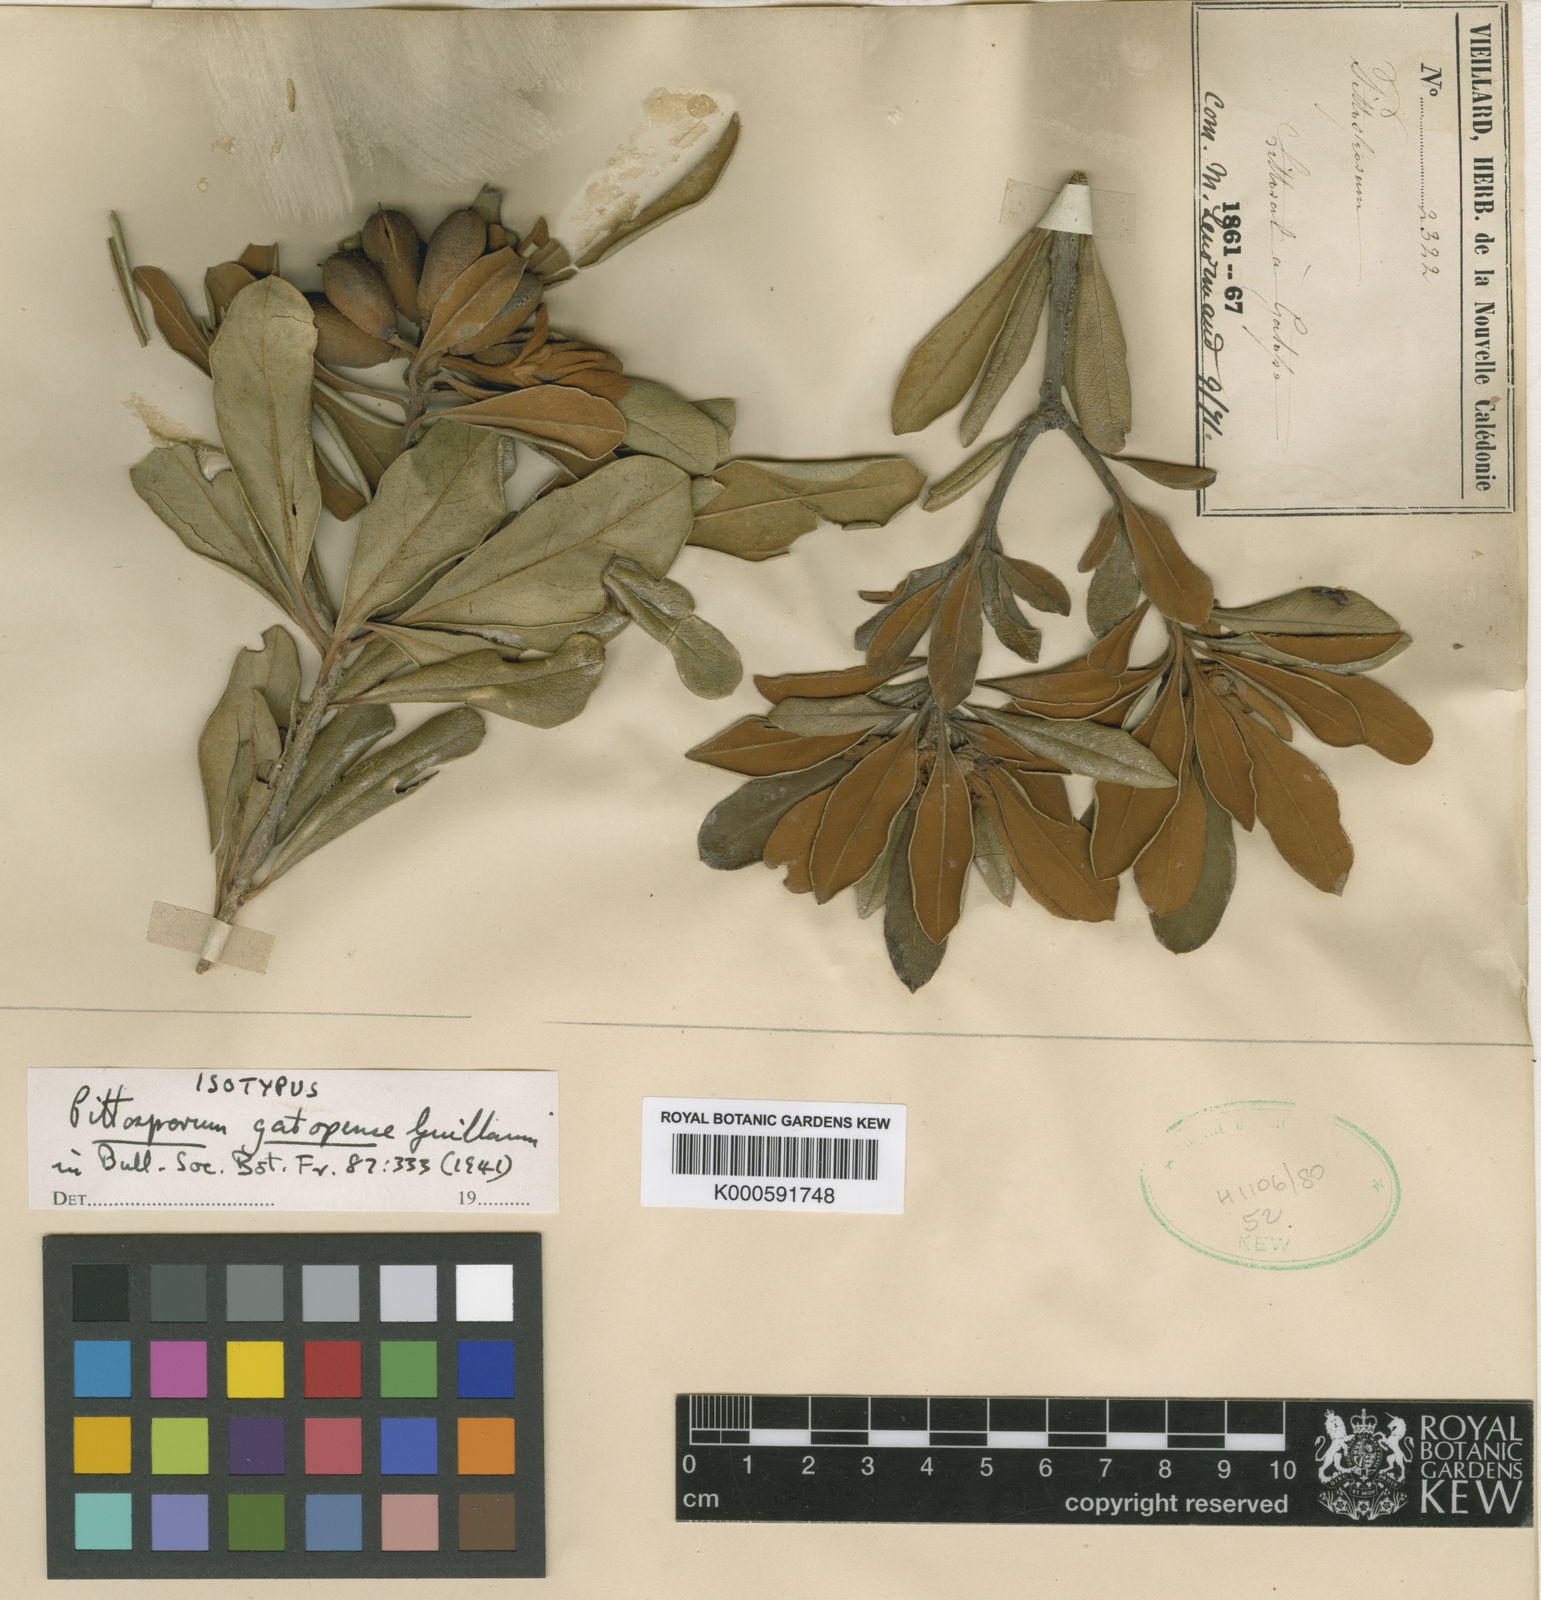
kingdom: Plantae
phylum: Tracheophyta
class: Magnoliopsida
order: Apiales
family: Pittosporaceae
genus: Pittosporum
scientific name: Pittosporum gatopense
